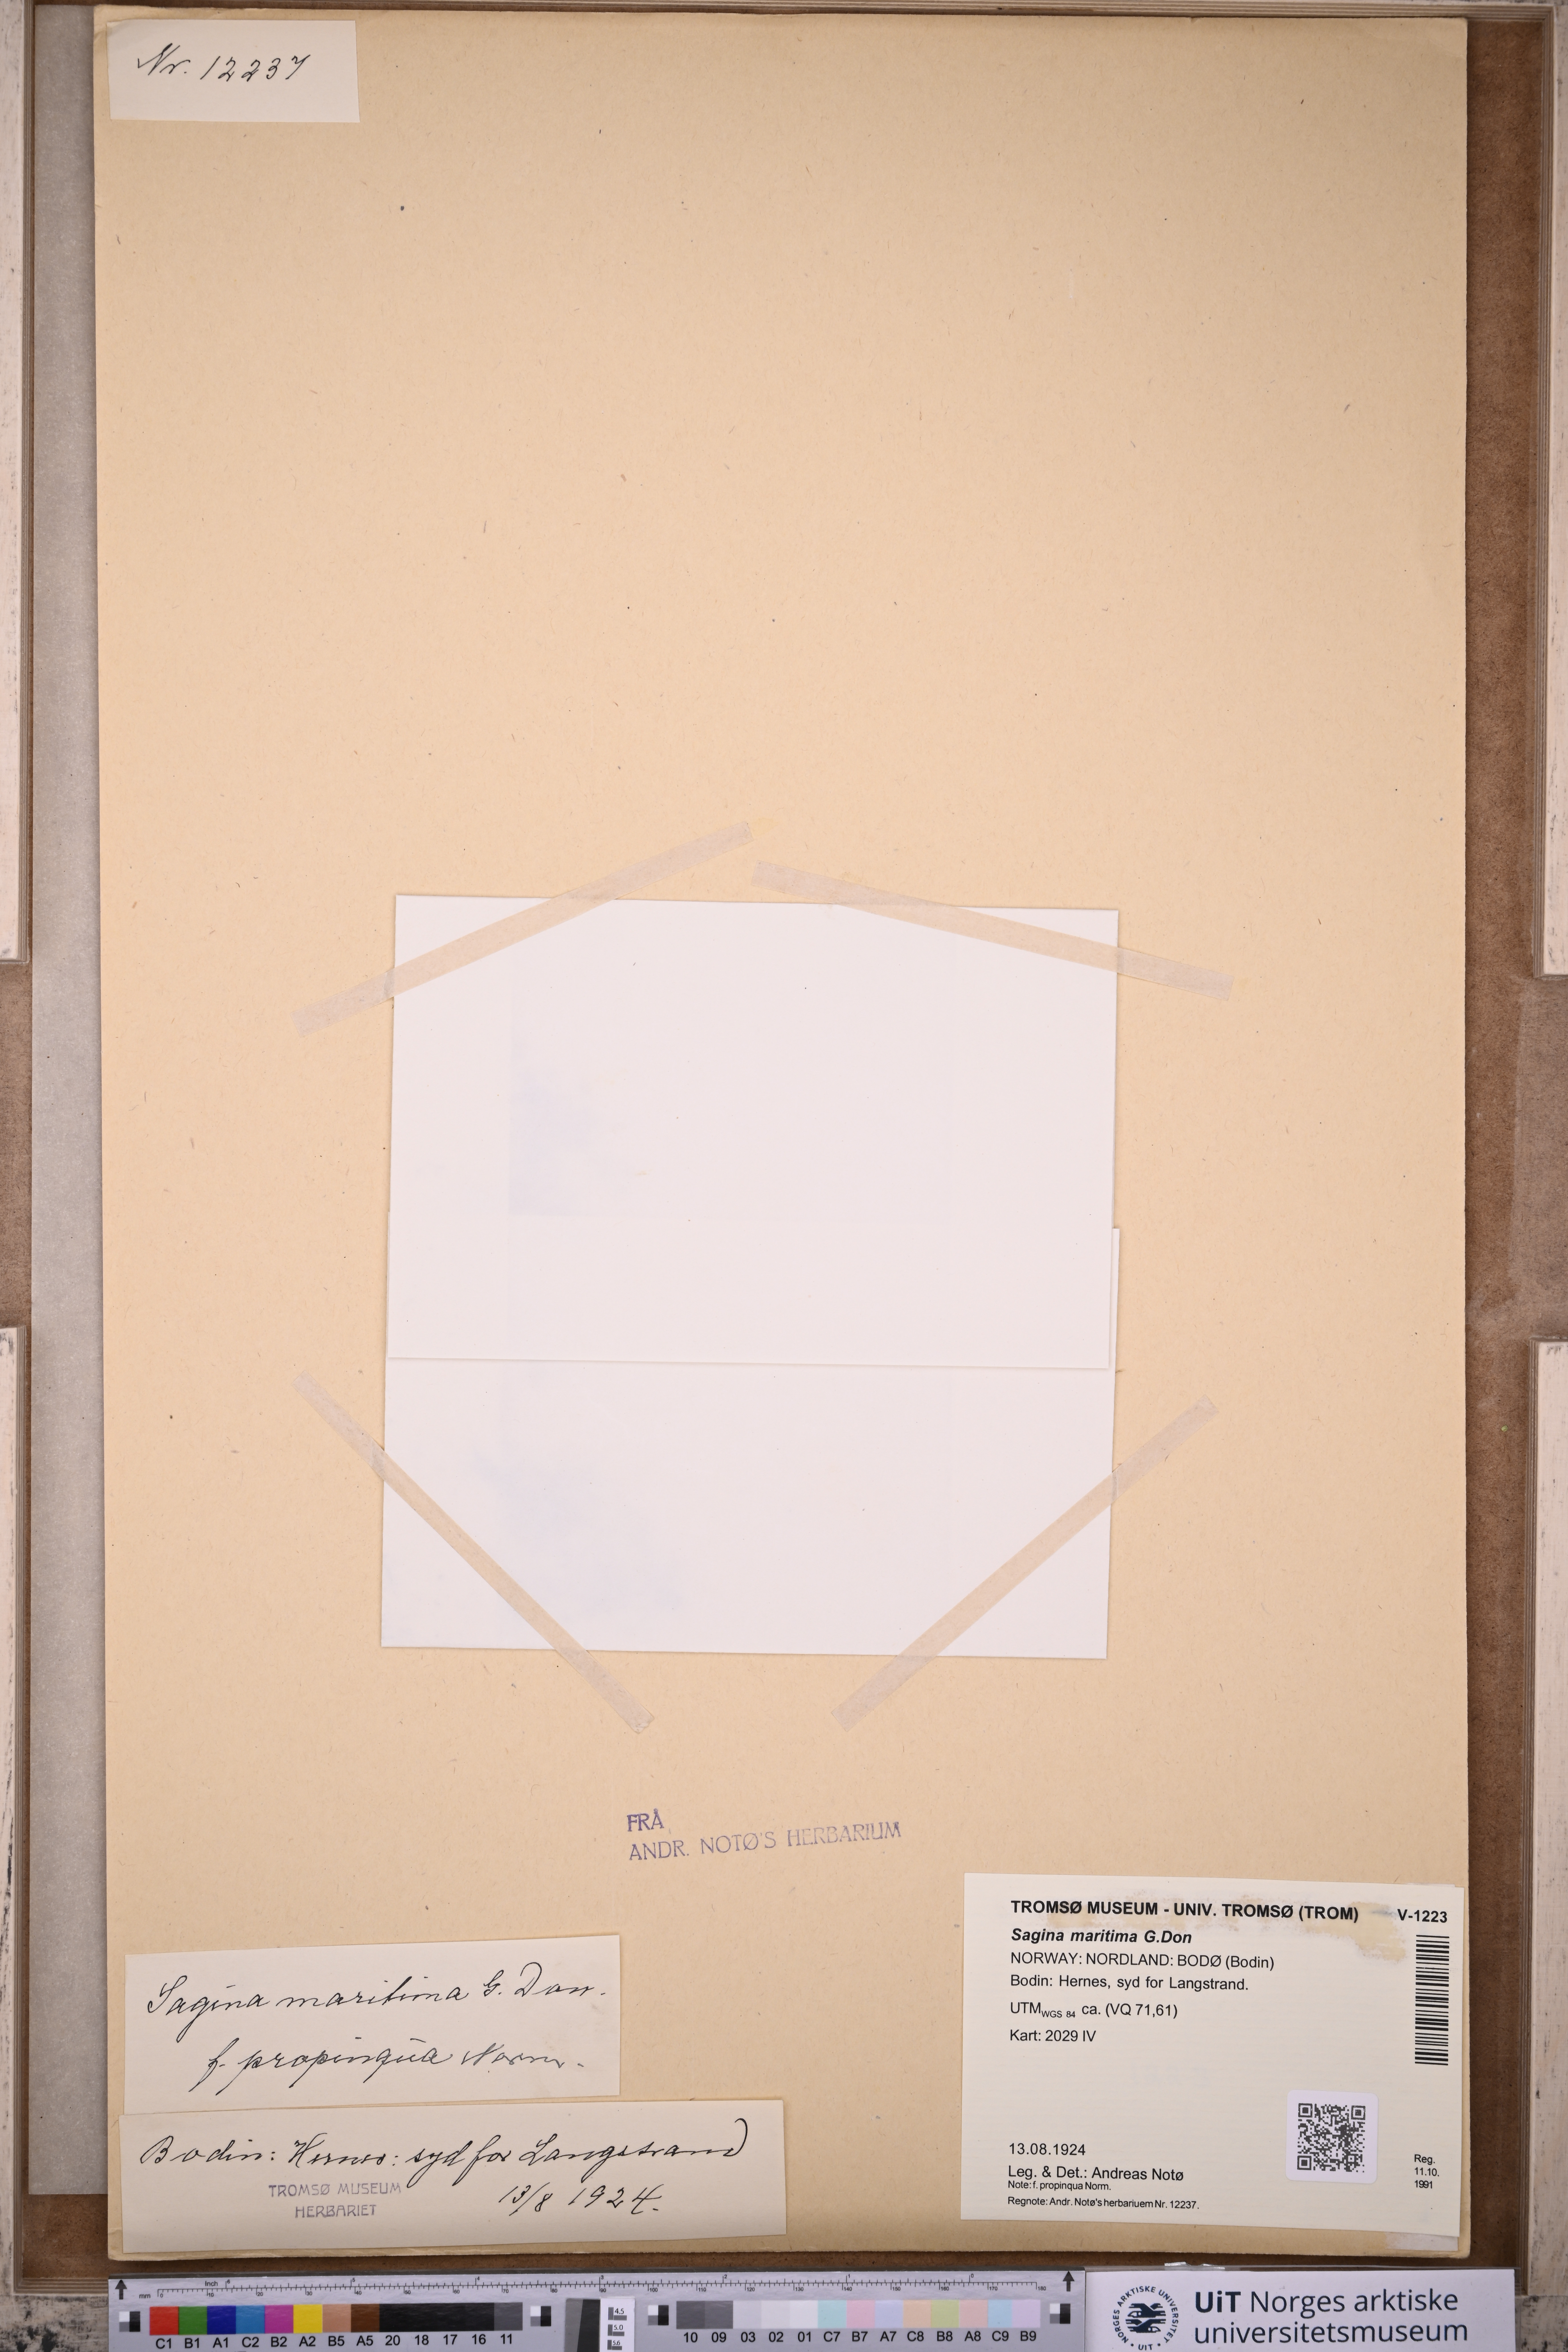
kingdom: Plantae
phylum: Tracheophyta
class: Magnoliopsida
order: Caryophyllales
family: Caryophyllaceae
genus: Sagina
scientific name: Sagina maritima
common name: Sea pearlwort
